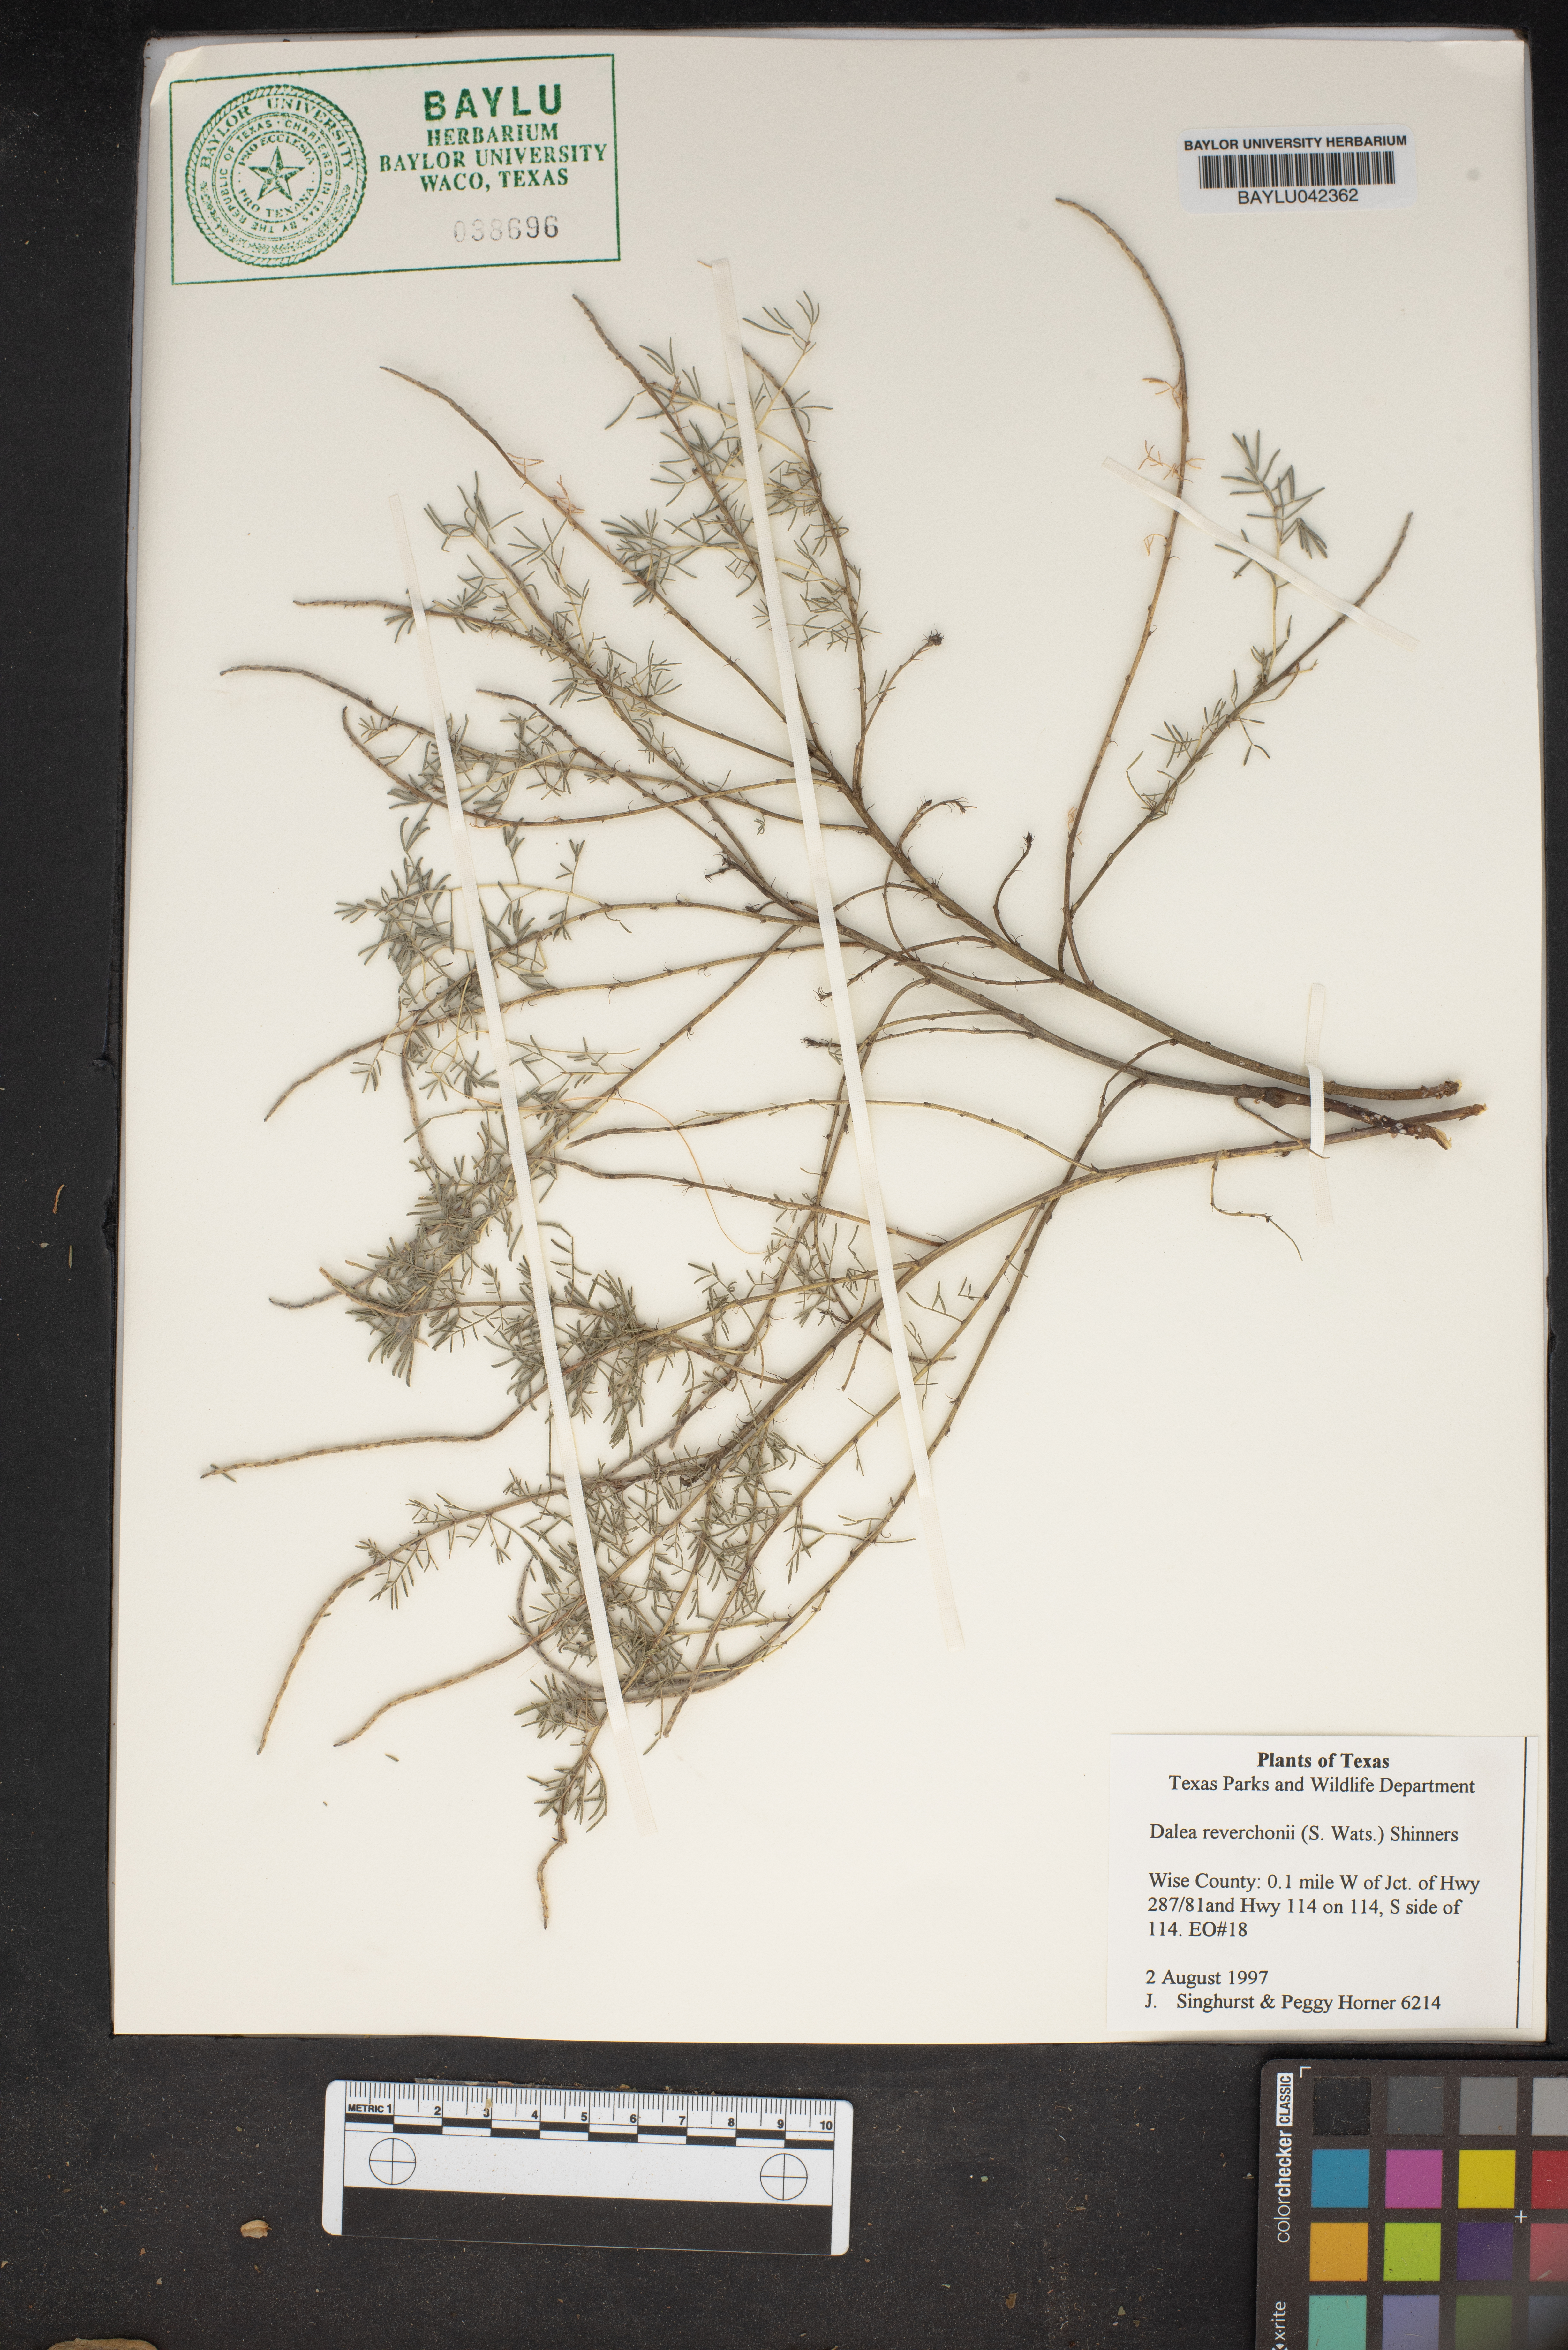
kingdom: Plantae
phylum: Tracheophyta
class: Magnoliopsida
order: Fabales
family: Fabaceae
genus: Dalea
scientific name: Dalea reverchonii
